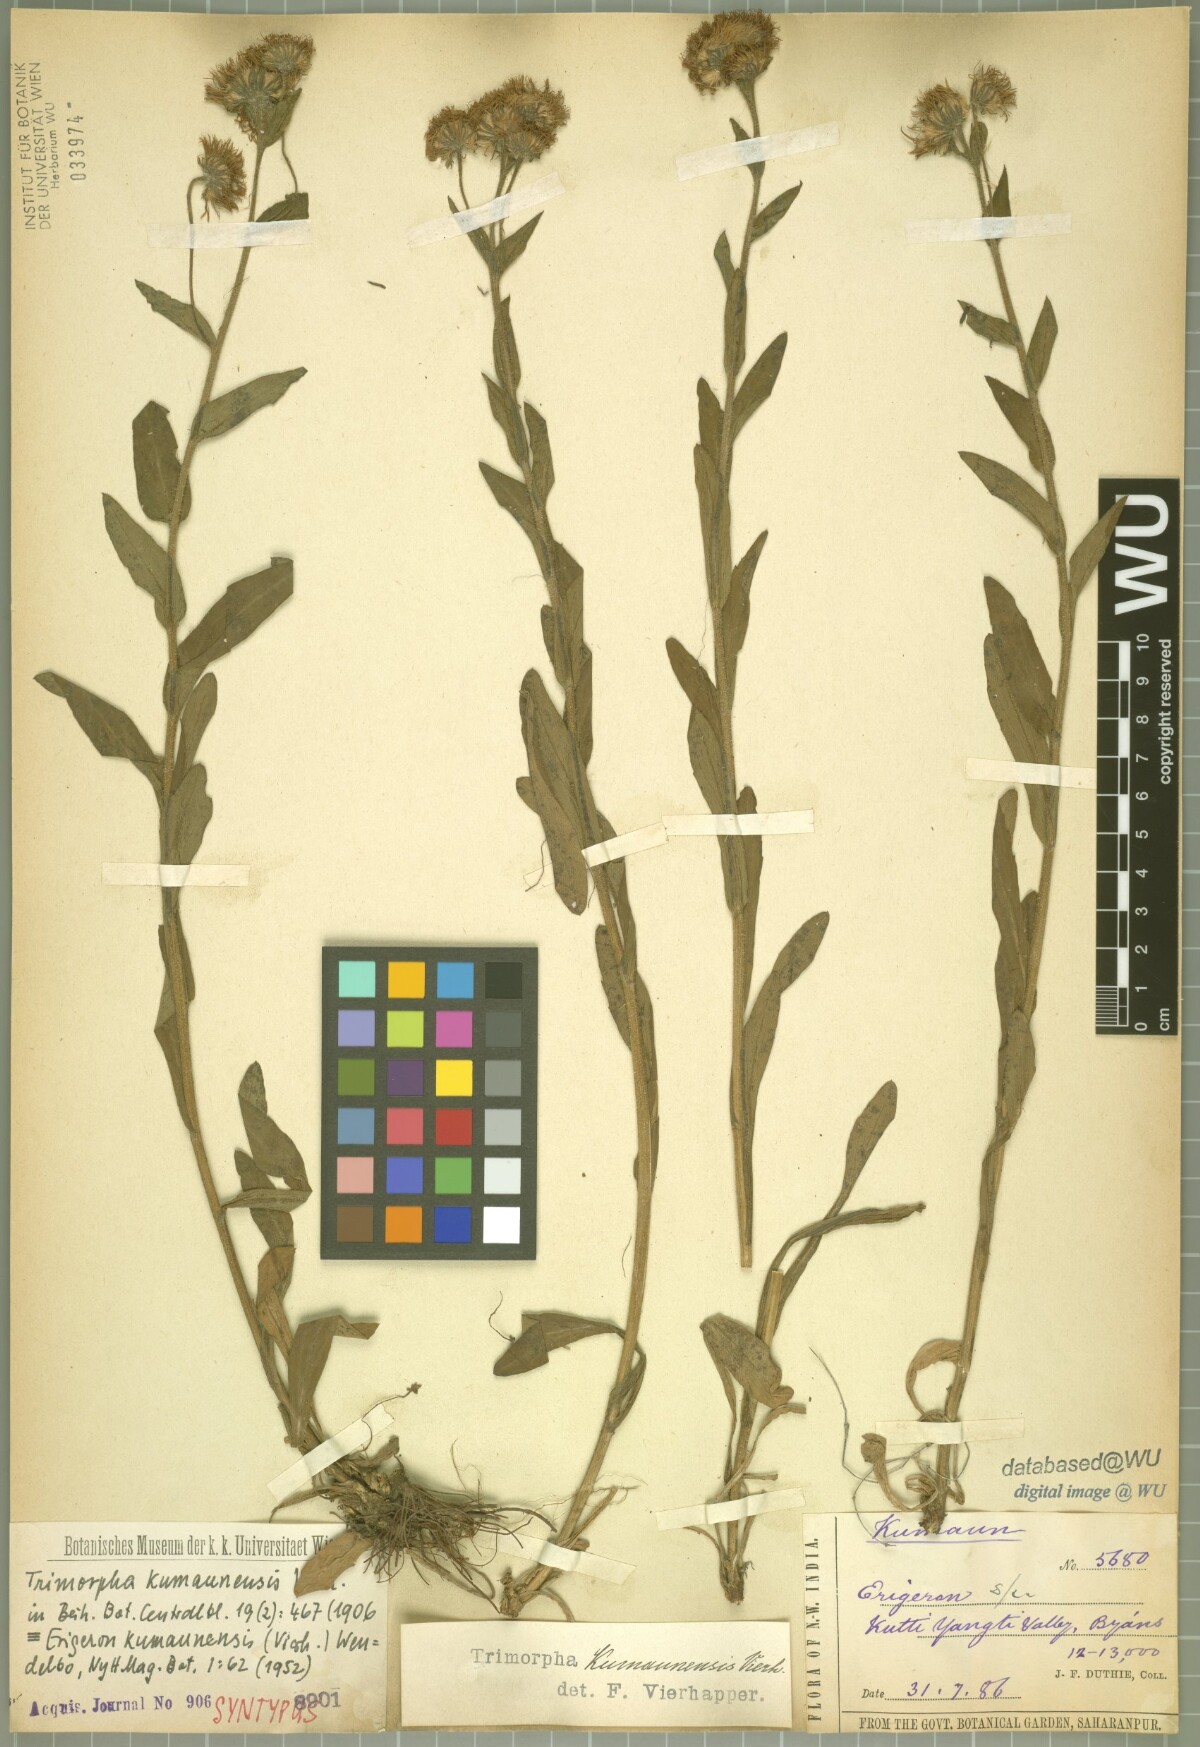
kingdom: Plantae
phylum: Tracheophyta
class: Magnoliopsida
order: Asterales
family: Asteraceae
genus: Erigeron
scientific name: Erigeron kumaunensis
